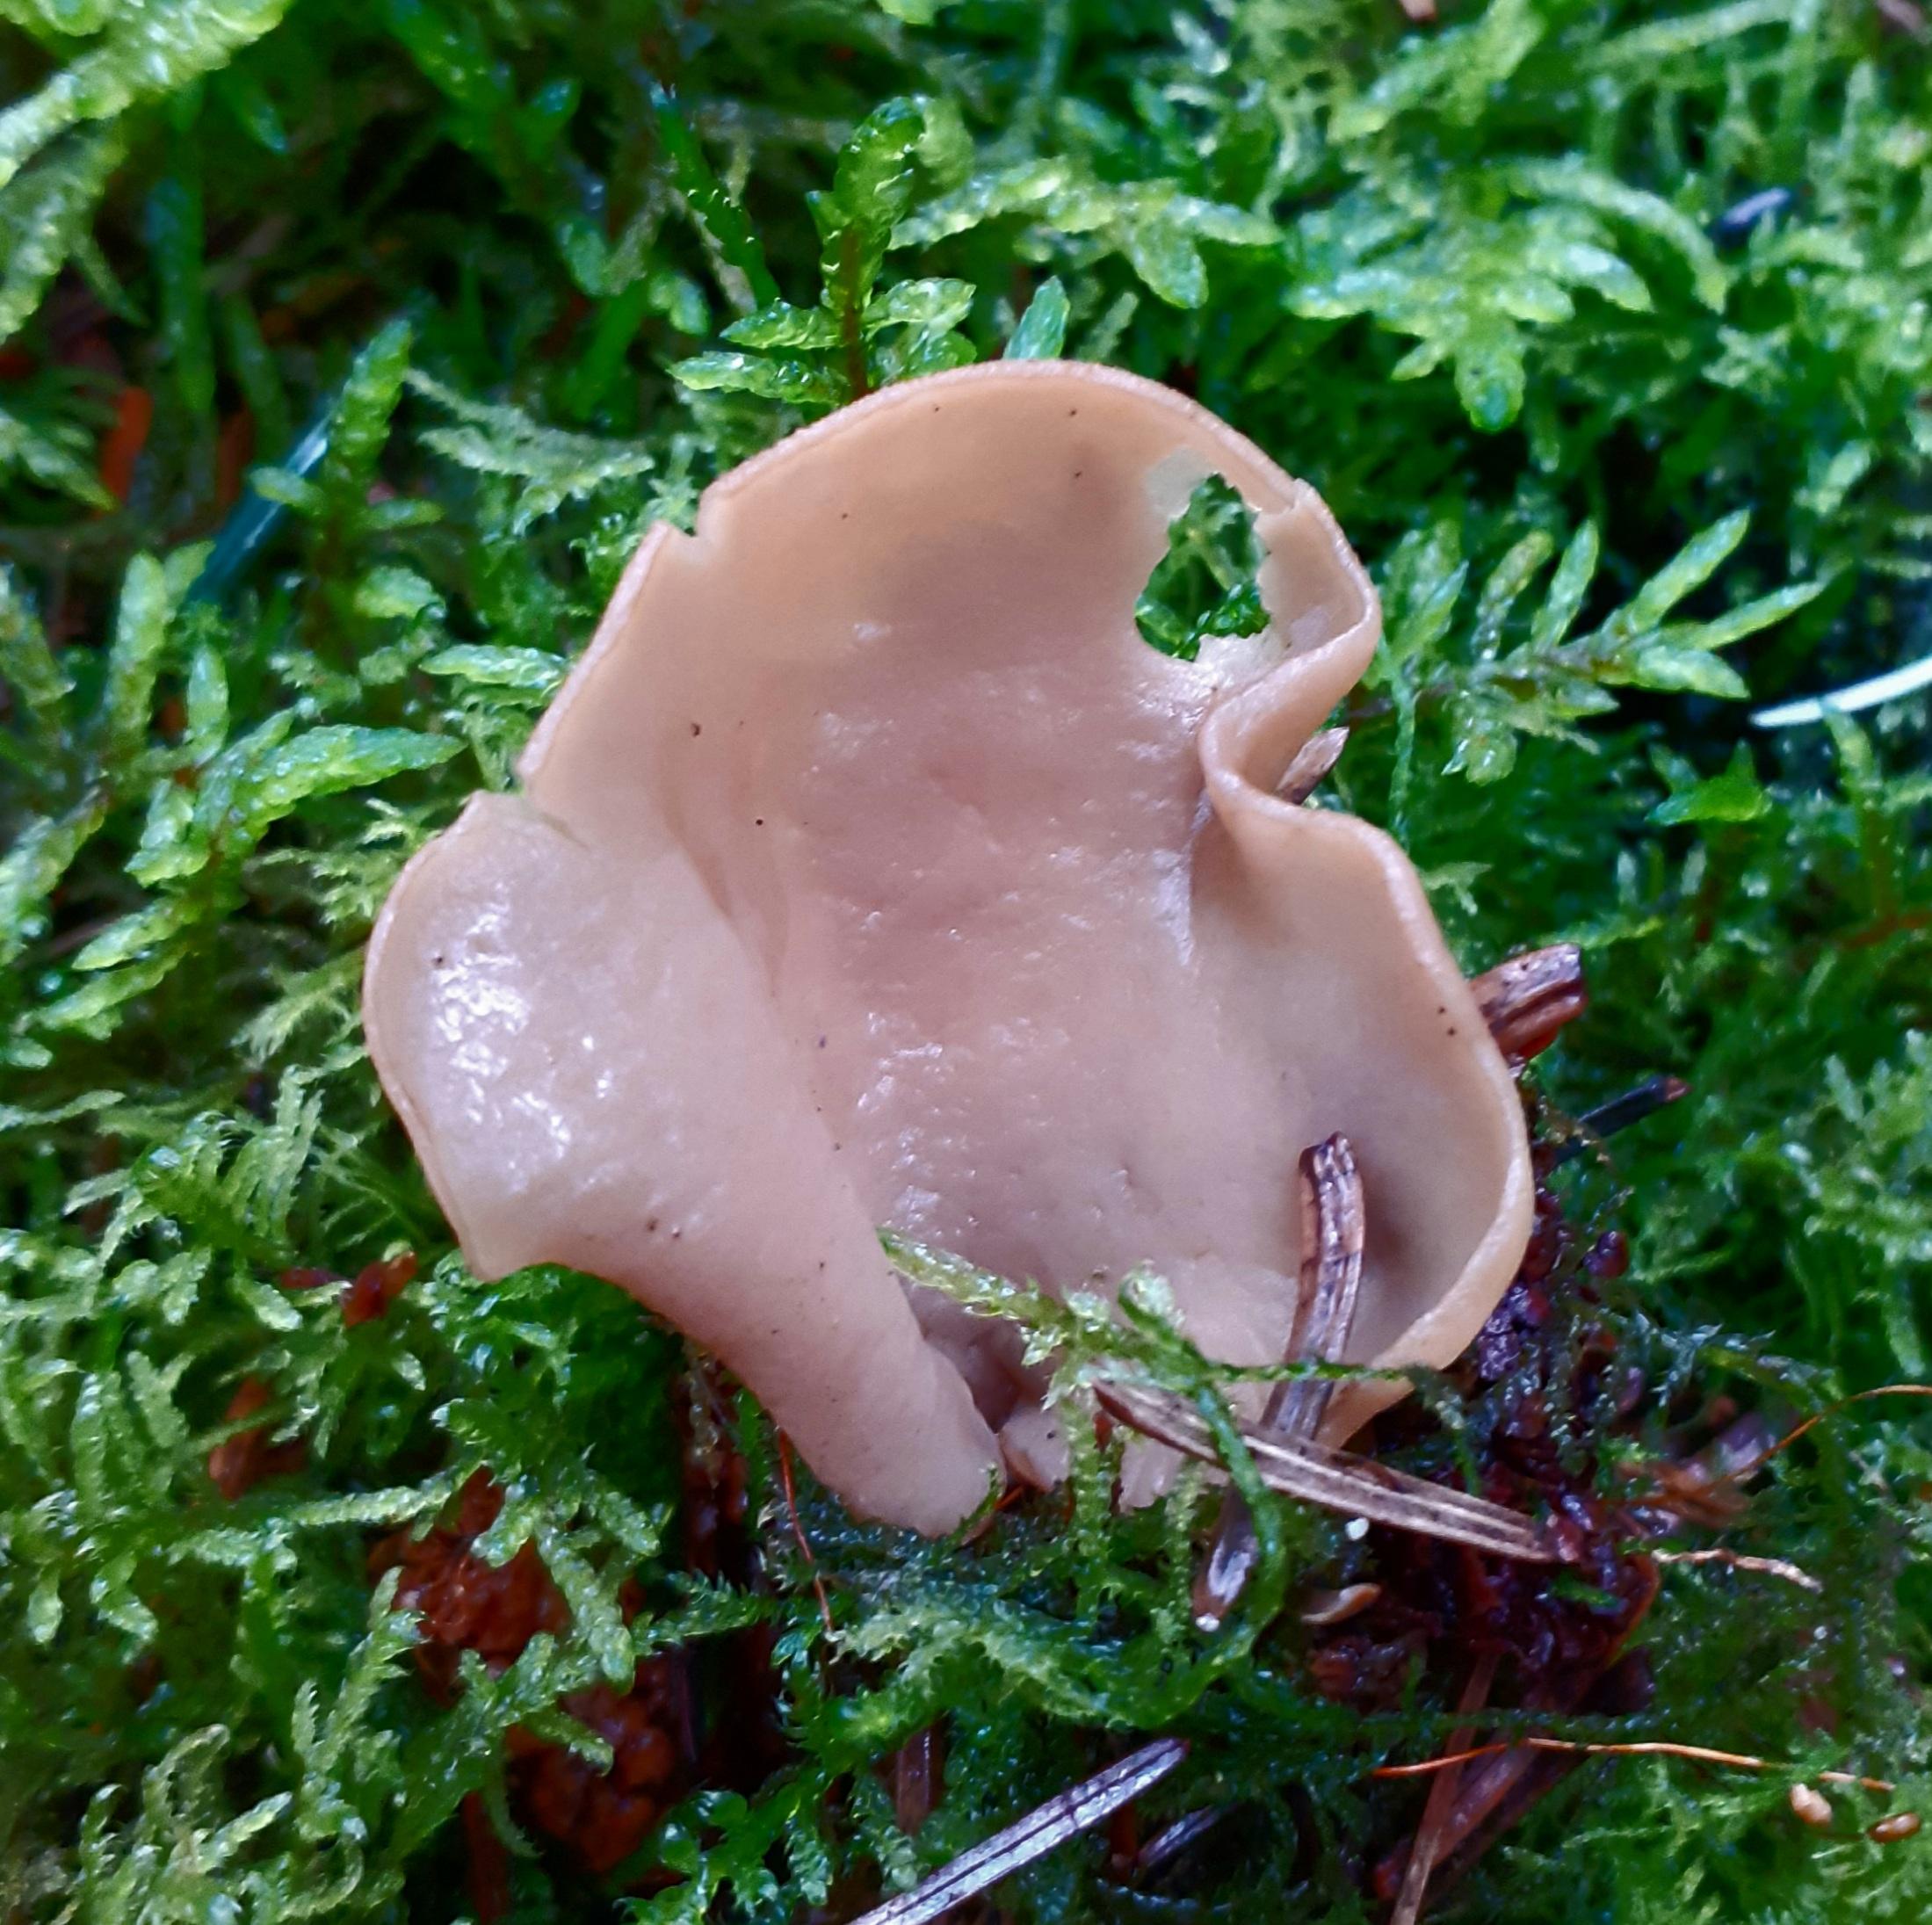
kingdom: Fungi
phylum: Ascomycota
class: Pezizomycetes
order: Pezizales
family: Otideaceae
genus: Otidea
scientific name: Otidea leporina
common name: hare-ørebæger
